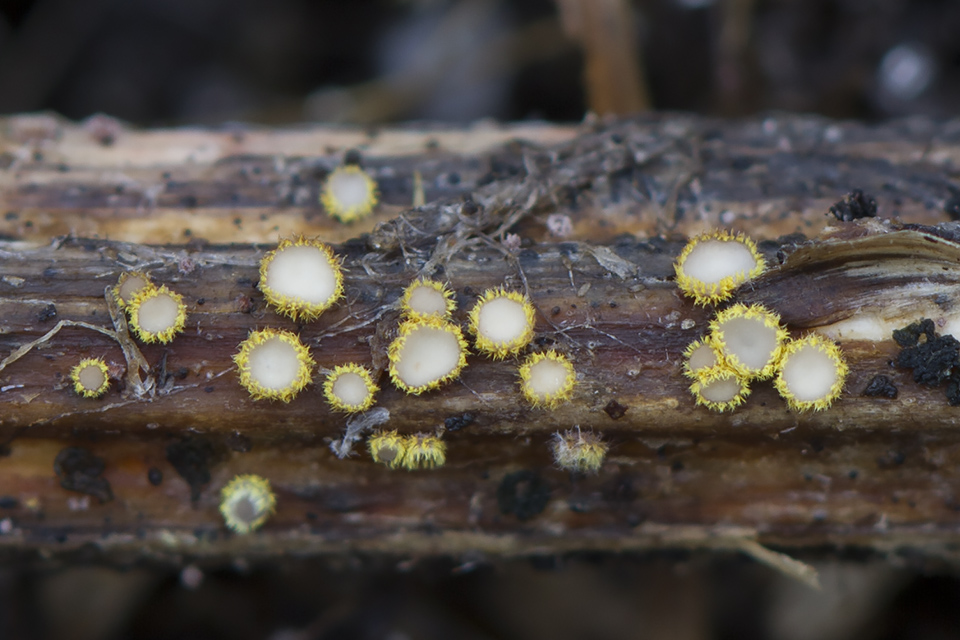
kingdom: Fungi
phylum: Ascomycota
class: Leotiomycetes
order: Helotiales
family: Lachnaceae
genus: Lachnum
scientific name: Lachnum sulphureum
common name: svovlhåret frynseskive
